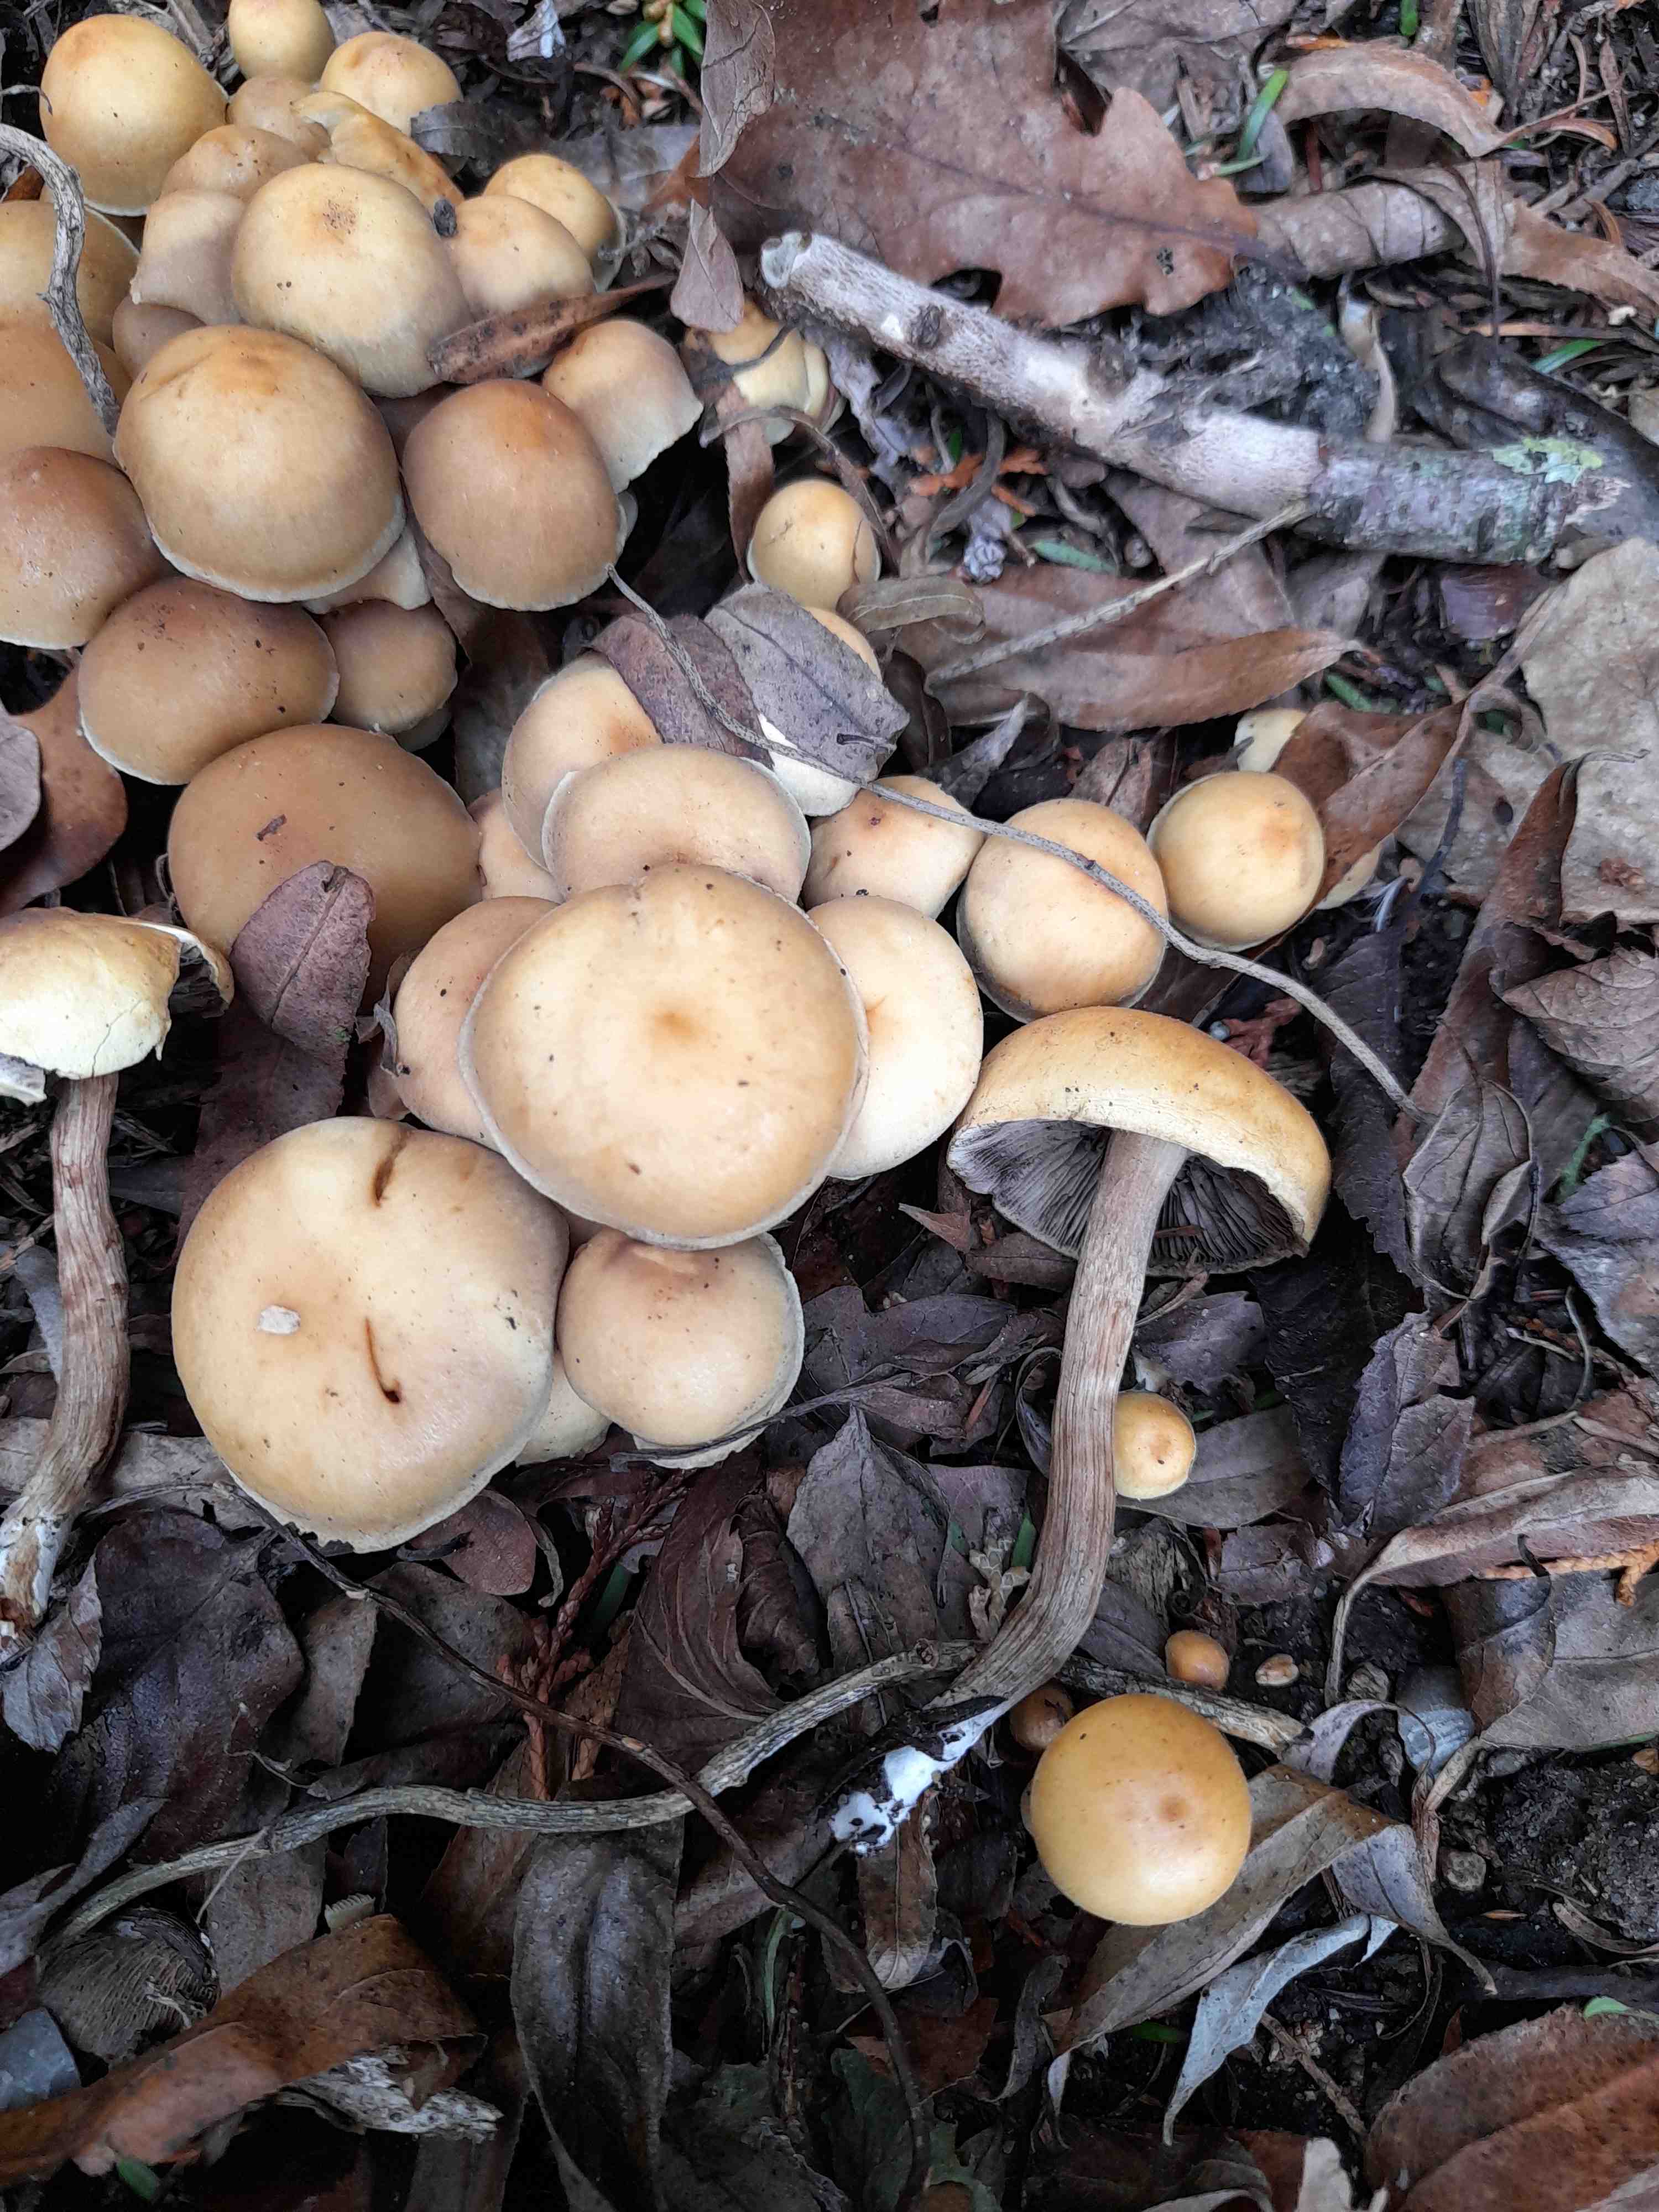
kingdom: Fungi
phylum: Basidiomycota
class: Agaricomycetes
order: Agaricales
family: Strophariaceae
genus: Hypholoma
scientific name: Hypholoma capnoides
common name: gran-svovlhat
